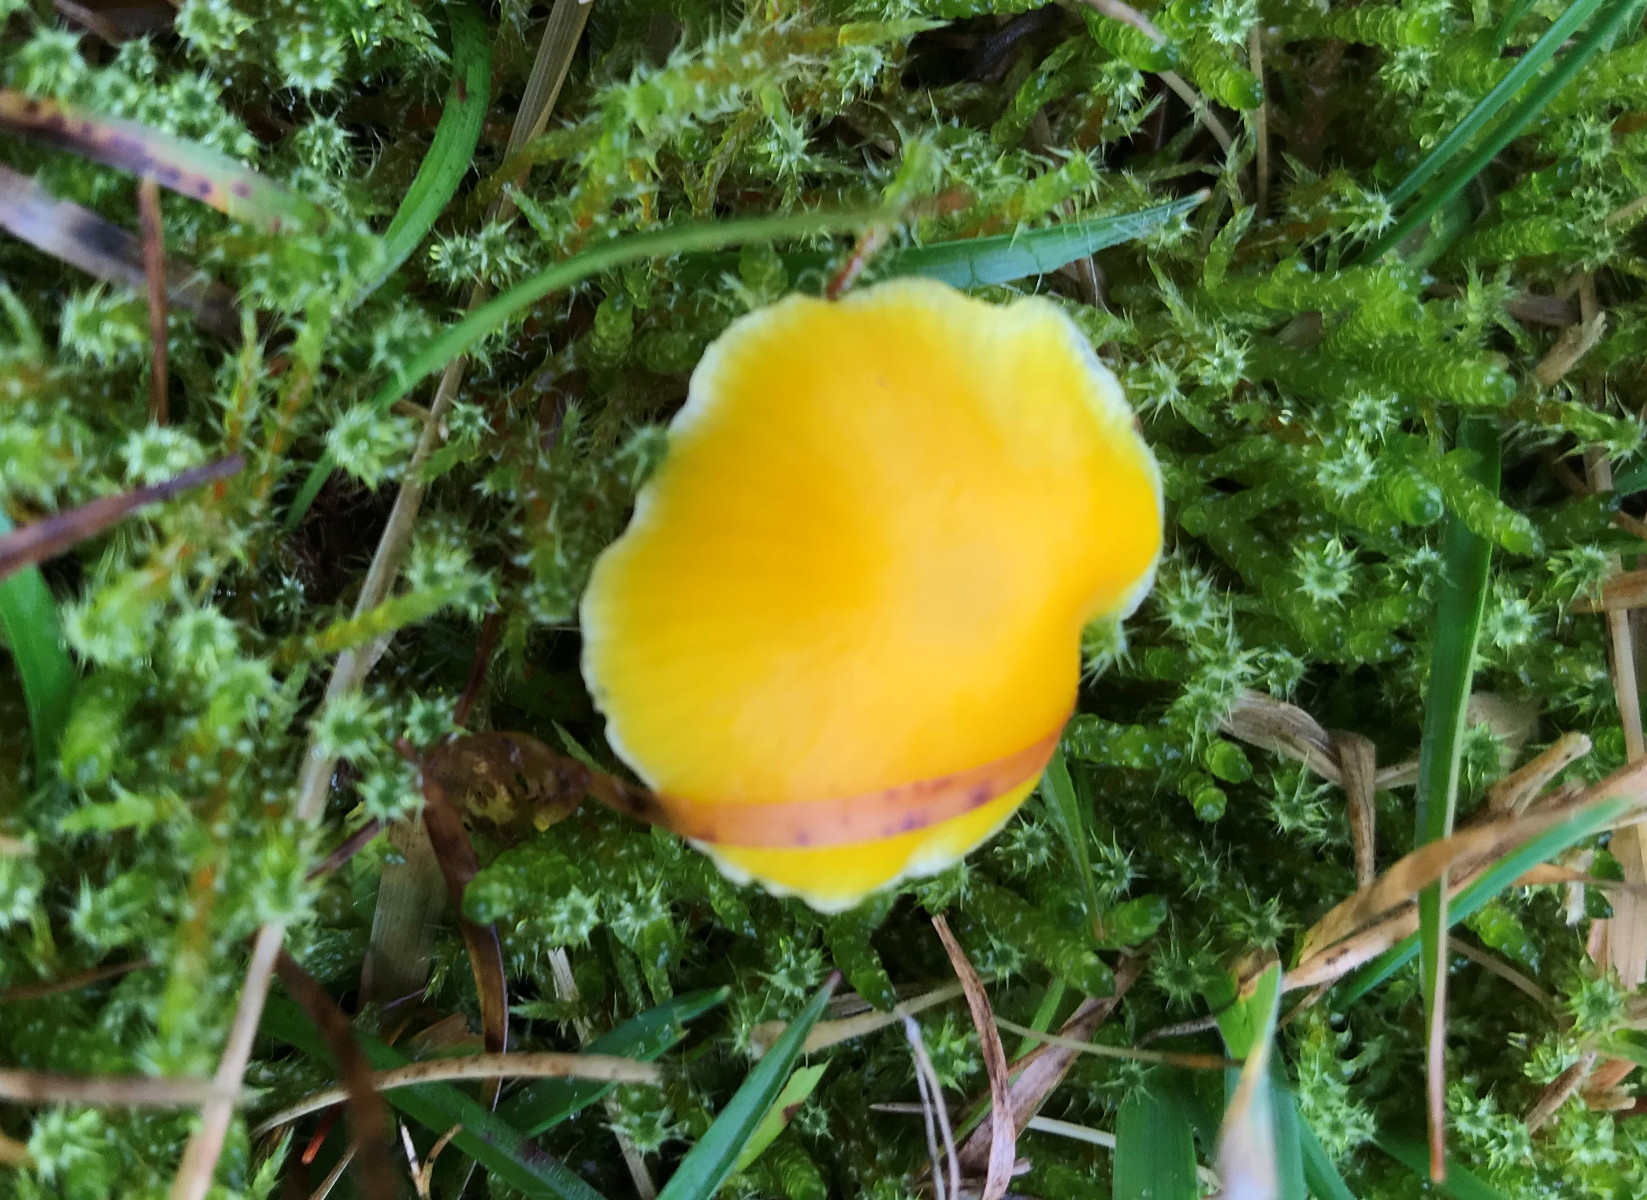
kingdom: Fungi
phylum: Basidiomycota
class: Agaricomycetes
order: Agaricales
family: Hygrophoraceae
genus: Hygrocybe
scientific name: Hygrocybe ceracea
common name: voksgul vokshat
